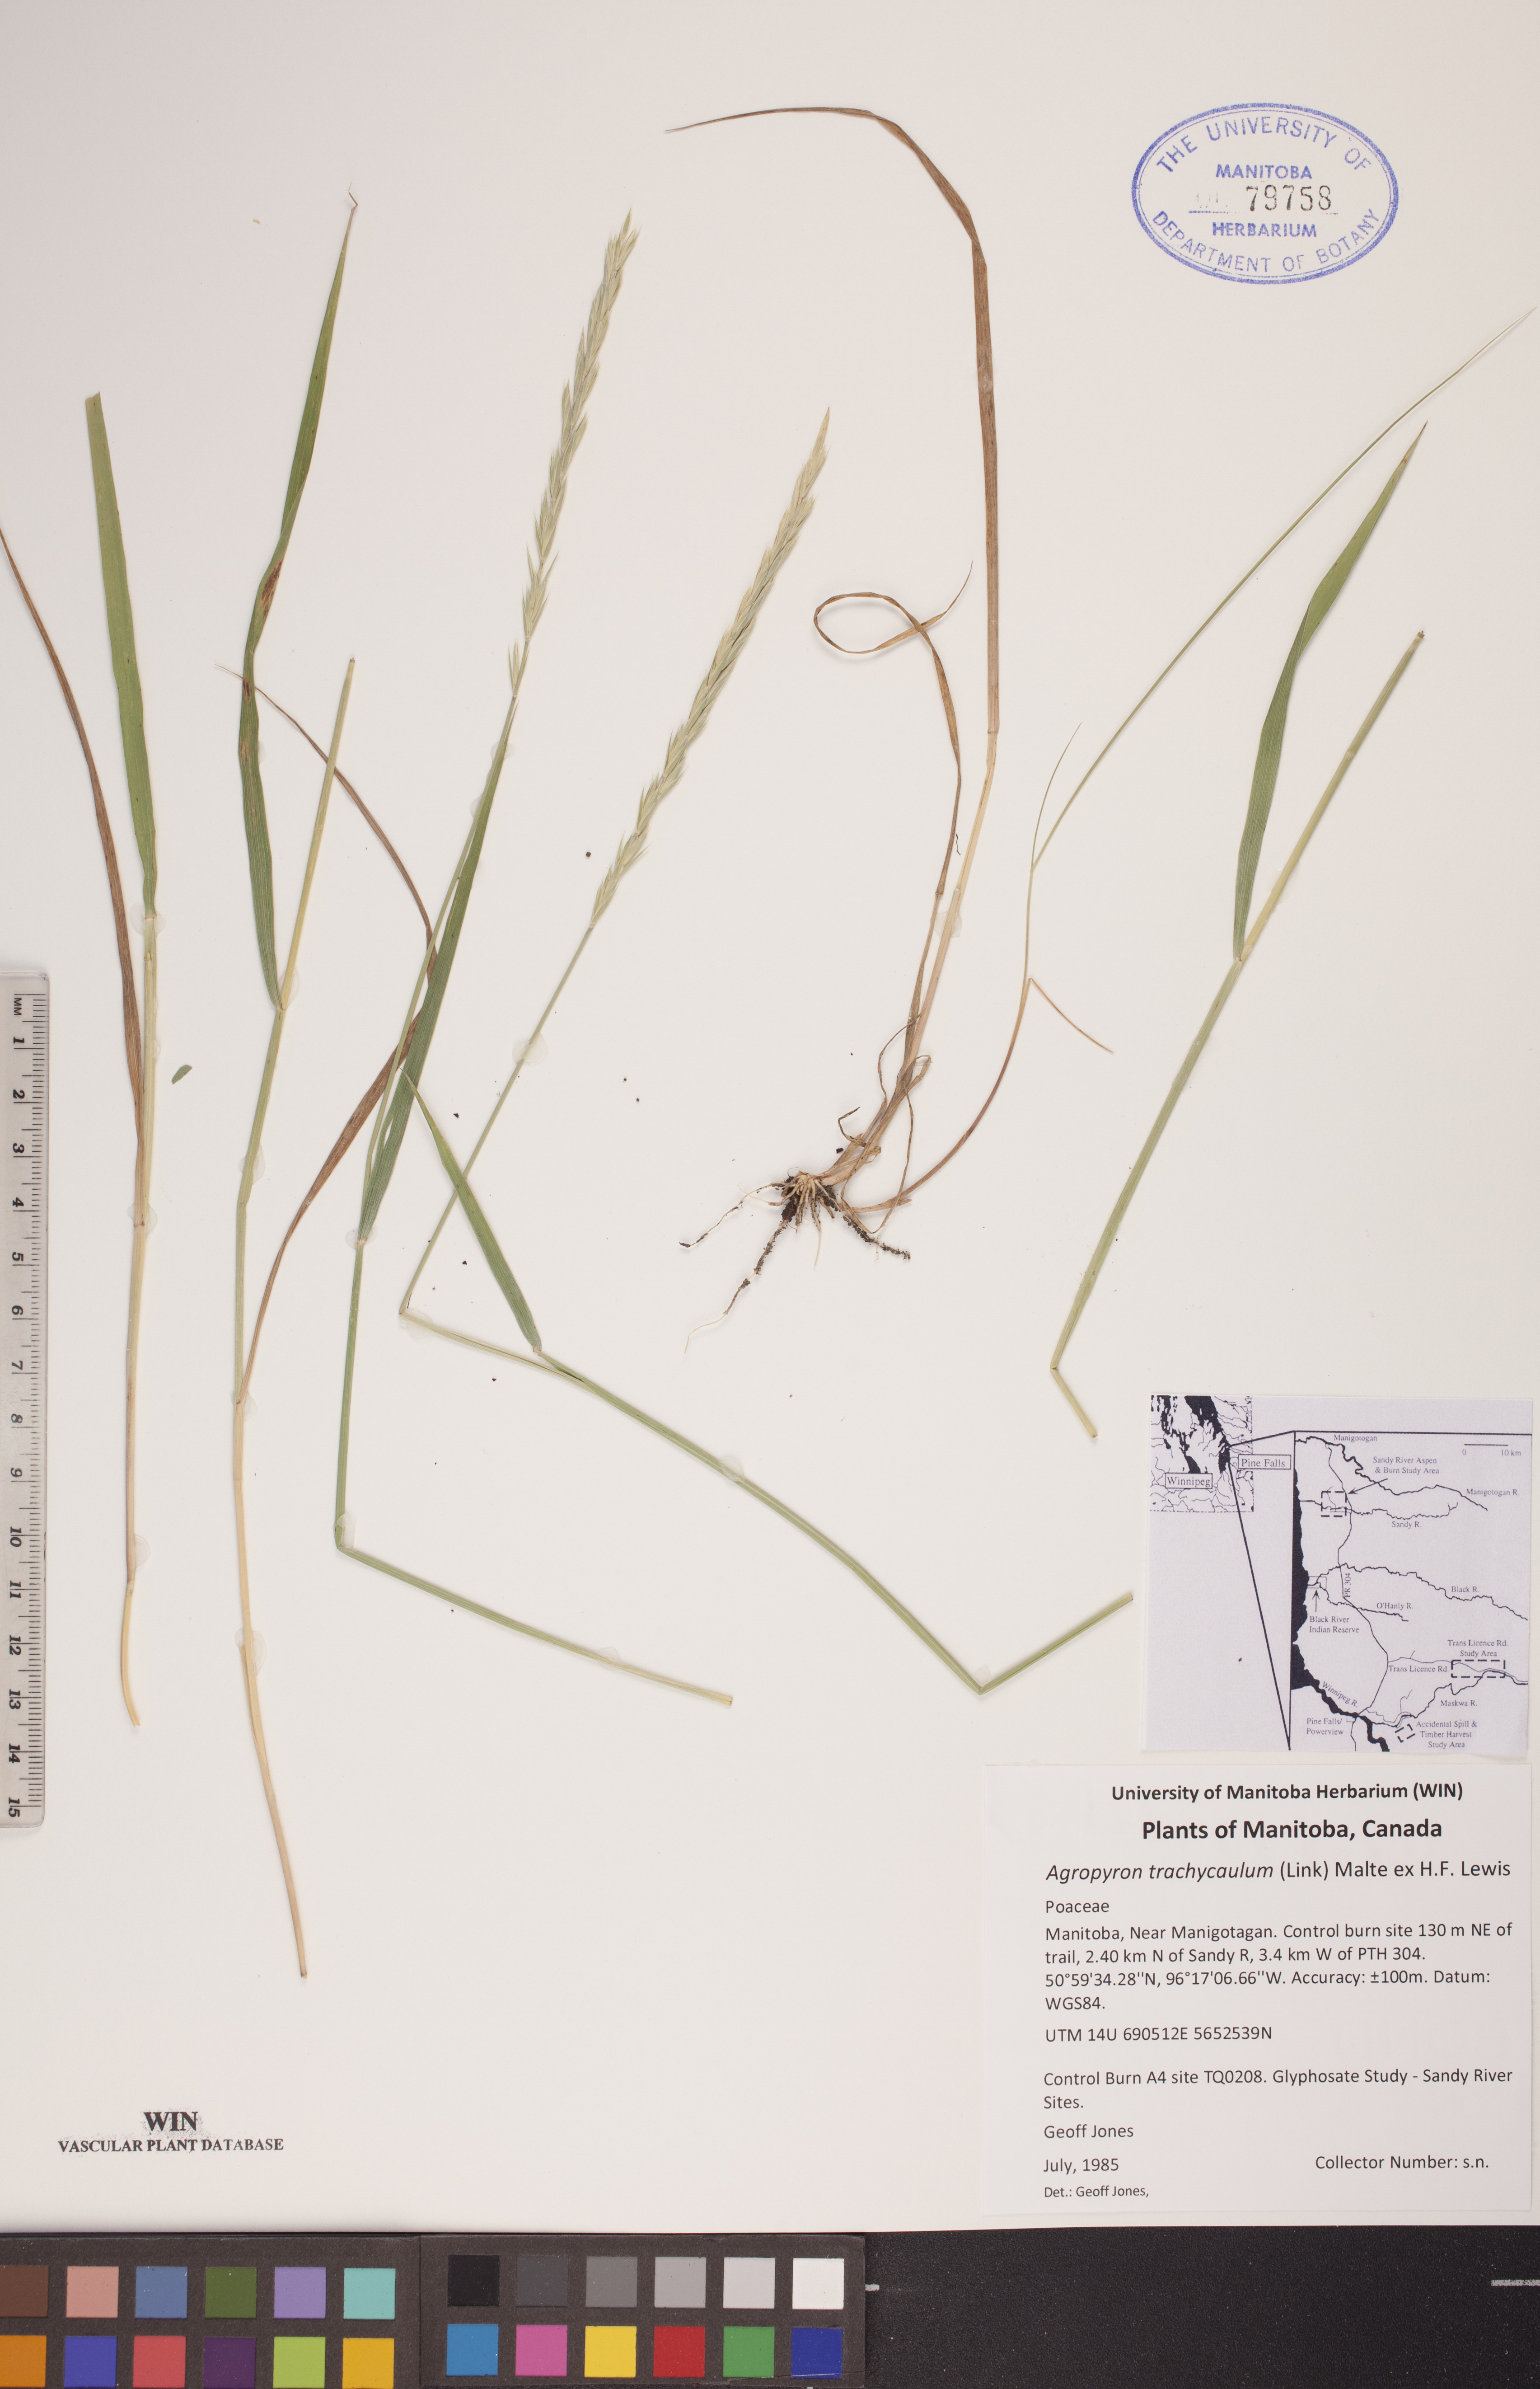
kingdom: Plantae
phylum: Tracheophyta
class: Liliopsida
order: Poales
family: Poaceae
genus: Elymus
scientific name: Elymus violaceus
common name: Arctic wheatgrass
